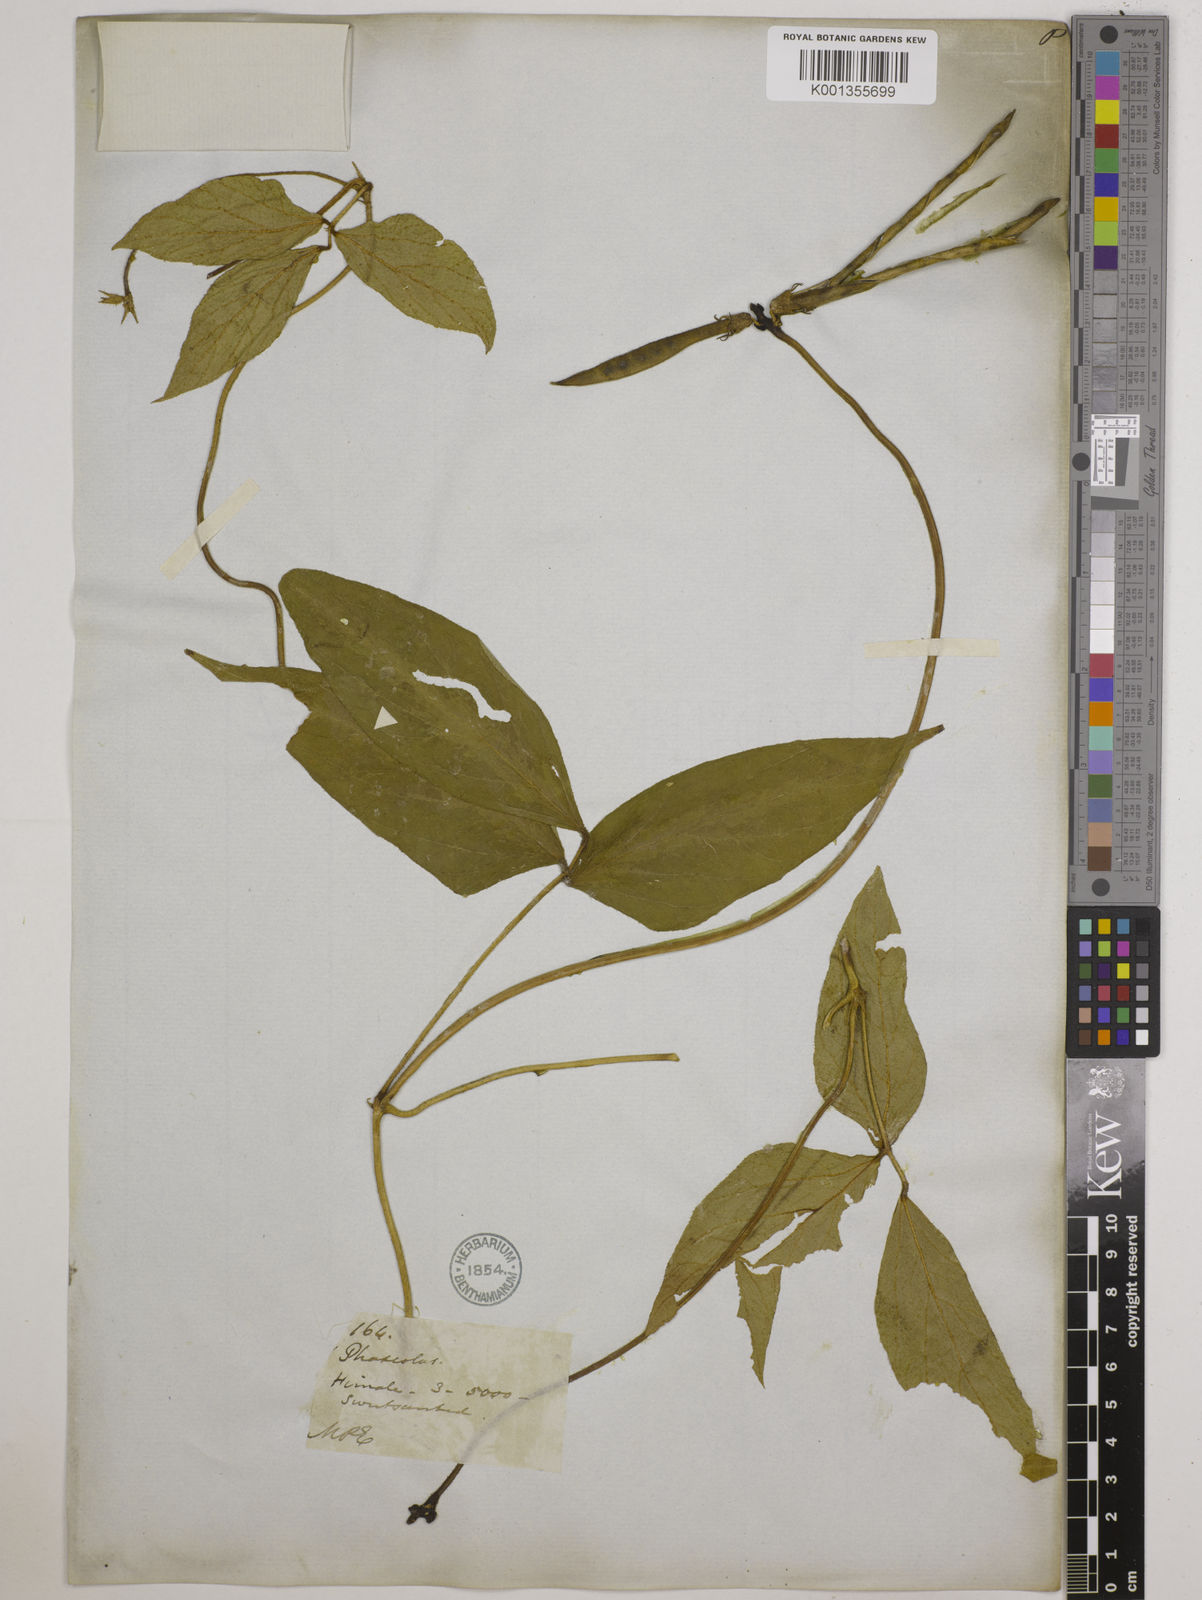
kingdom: Plantae
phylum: Tracheophyta
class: Magnoliopsida
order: Fabales
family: Fabaceae
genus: Vigna
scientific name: Vigna vexillata
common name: Zombi pea
